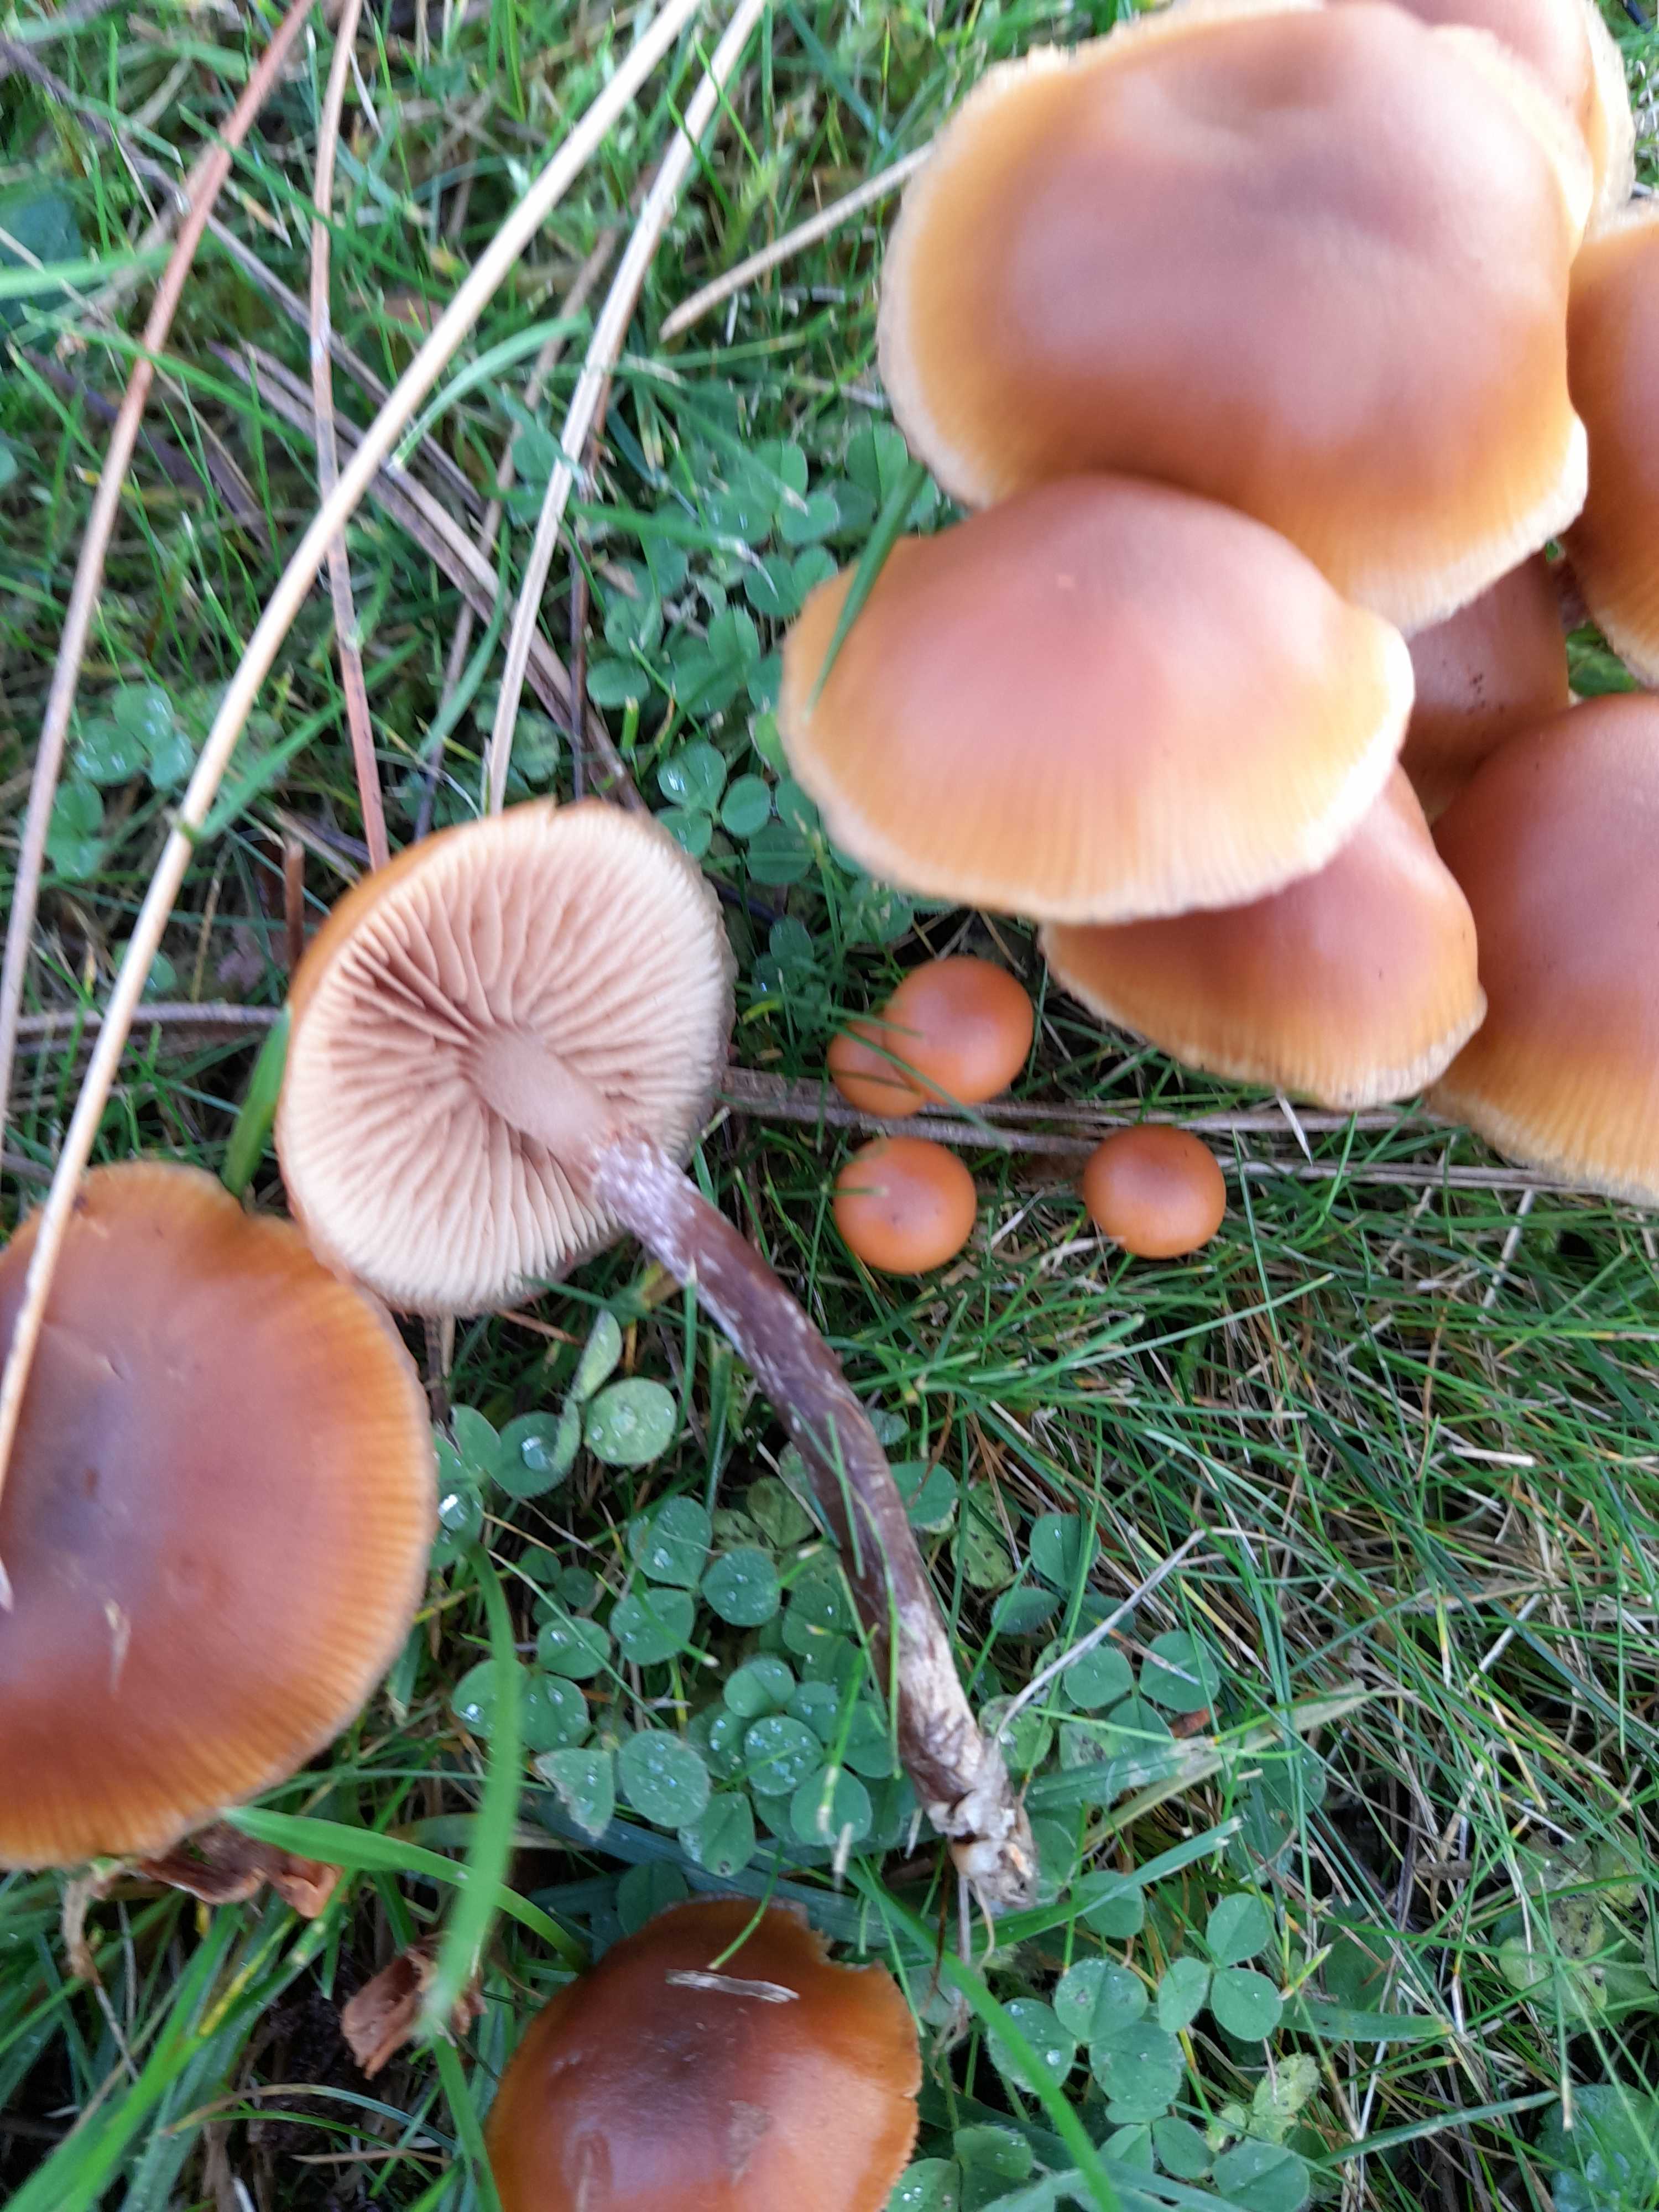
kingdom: Fungi
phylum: Basidiomycota
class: Agaricomycetes
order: Agaricales
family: Hymenogastraceae
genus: Galerina
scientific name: Galerina marginata
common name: randbæltet hjelmhat
